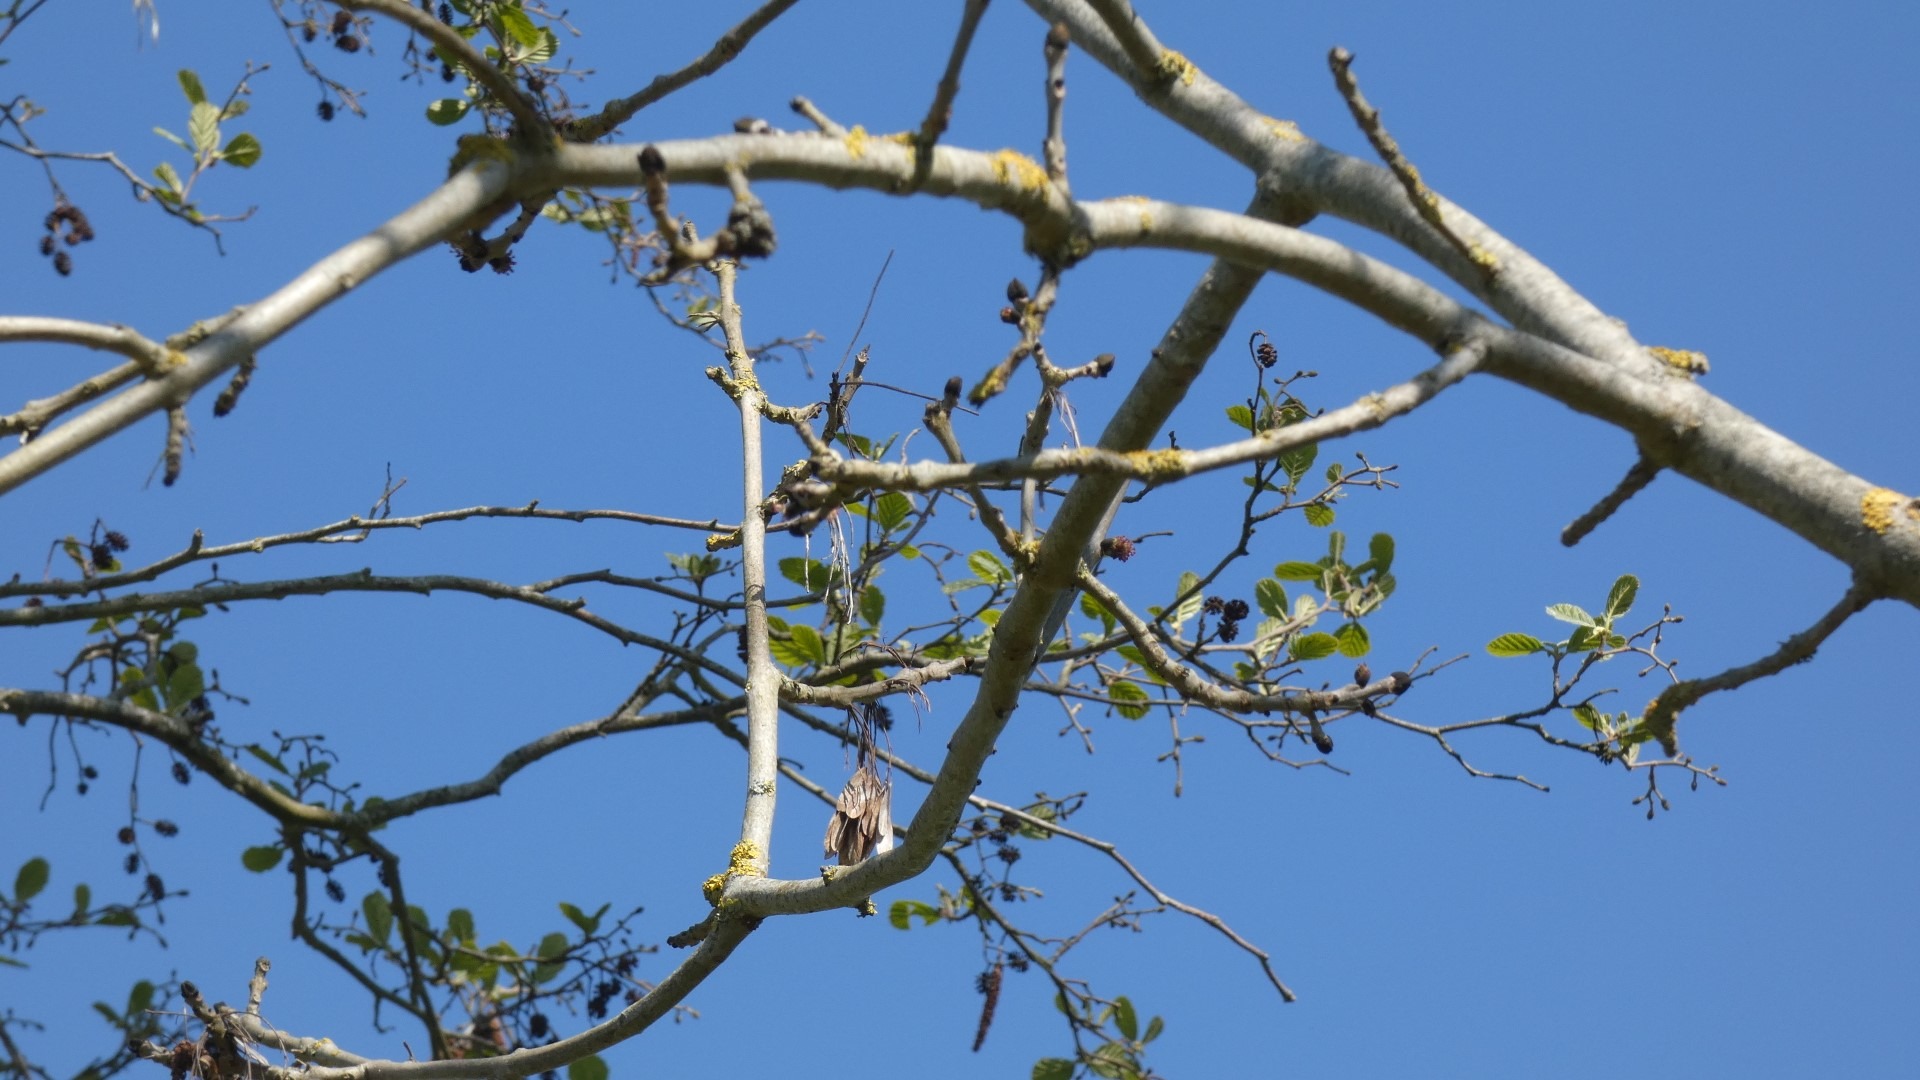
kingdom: Plantae
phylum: Tracheophyta
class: Magnoliopsida
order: Lamiales
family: Oleaceae
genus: Fraxinus
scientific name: Fraxinus excelsior
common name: Ask
